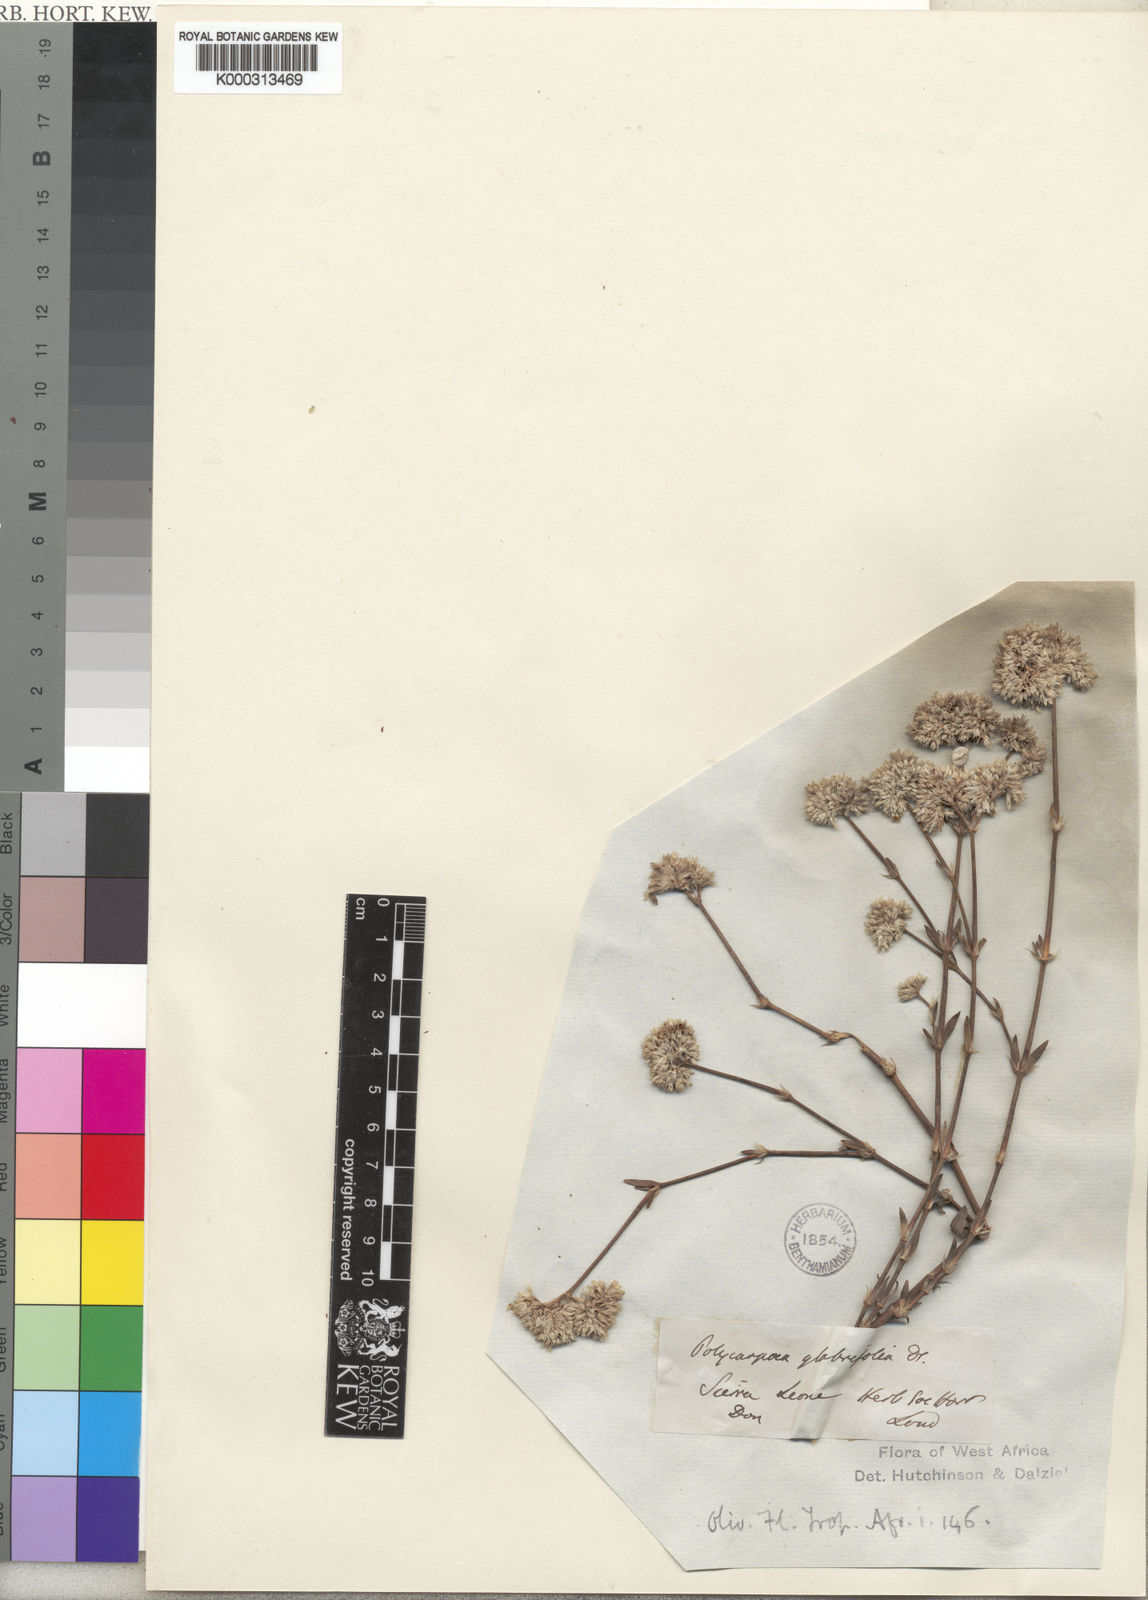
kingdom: Plantae
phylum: Tracheophyta
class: Magnoliopsida
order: Caryophyllales
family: Caryophyllaceae
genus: Polycarpaea
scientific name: Polycarpaea corymbosa
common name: Oldman's cap
